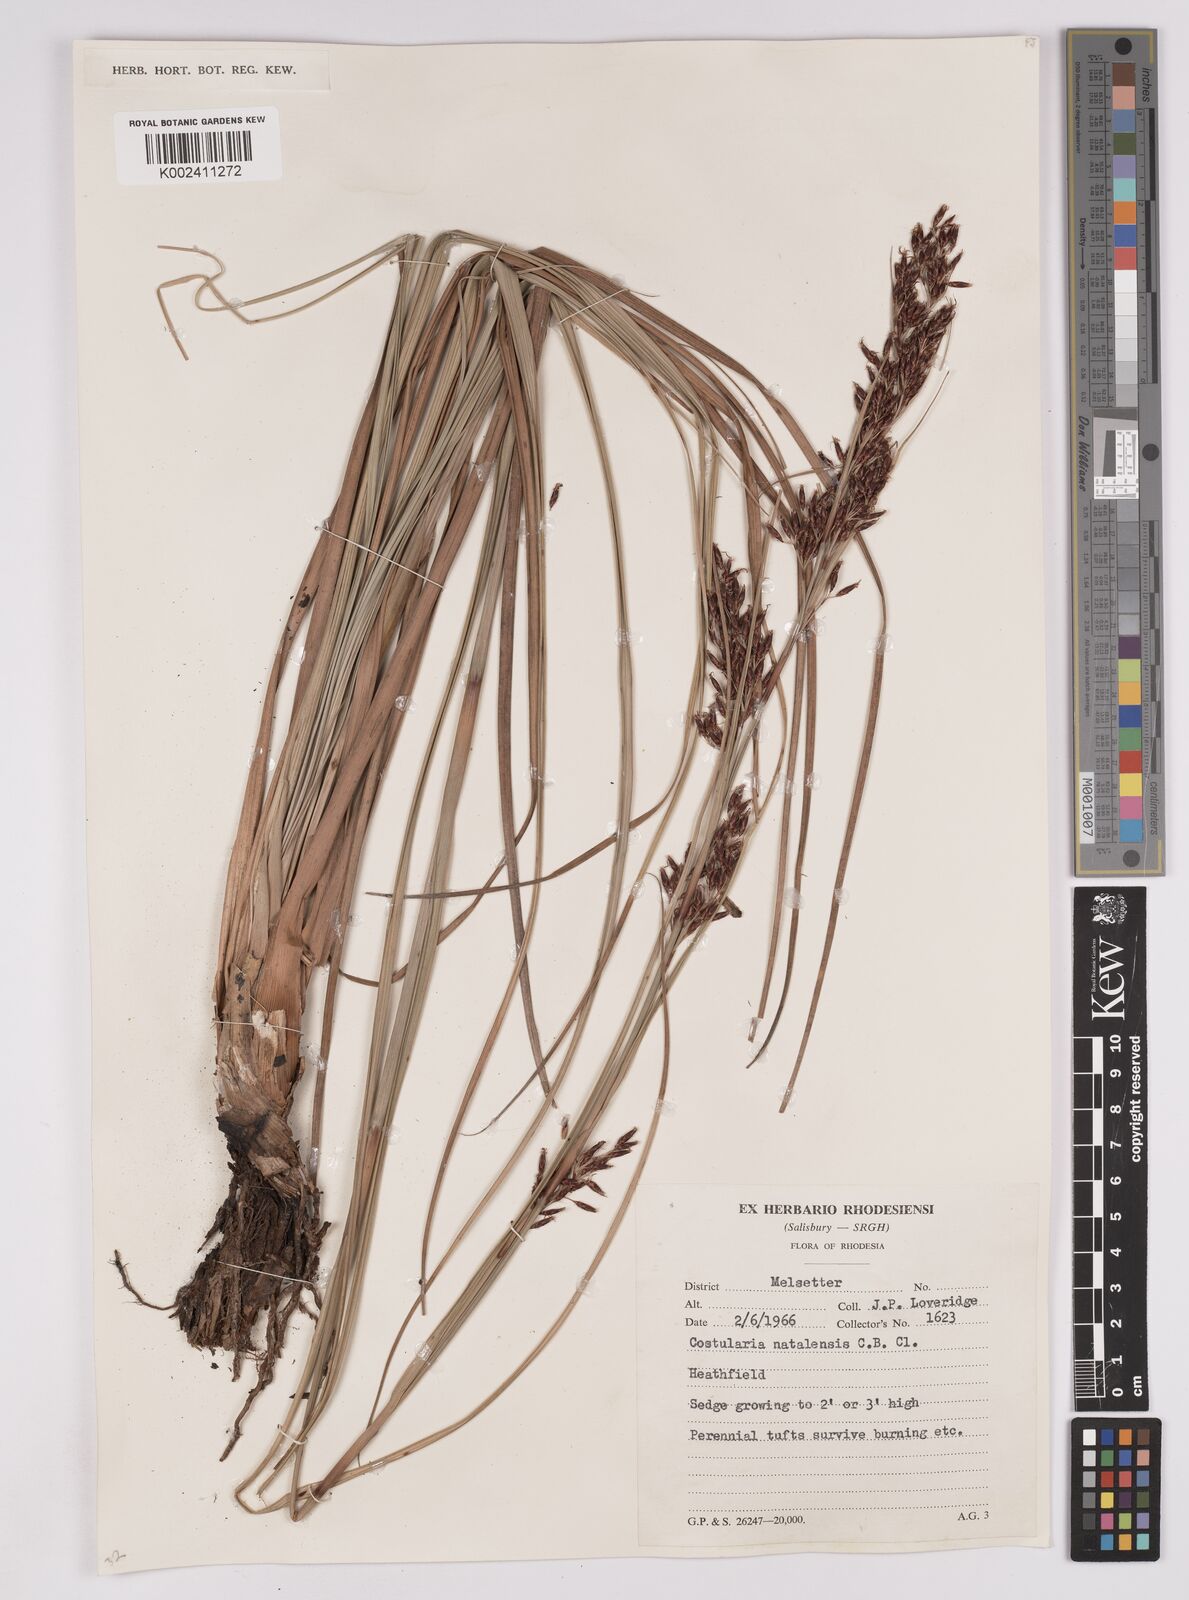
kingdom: Plantae
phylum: Tracheophyta
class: Liliopsida
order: Poales
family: Cyperaceae
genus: Costularia
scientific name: Costularia natalensis
